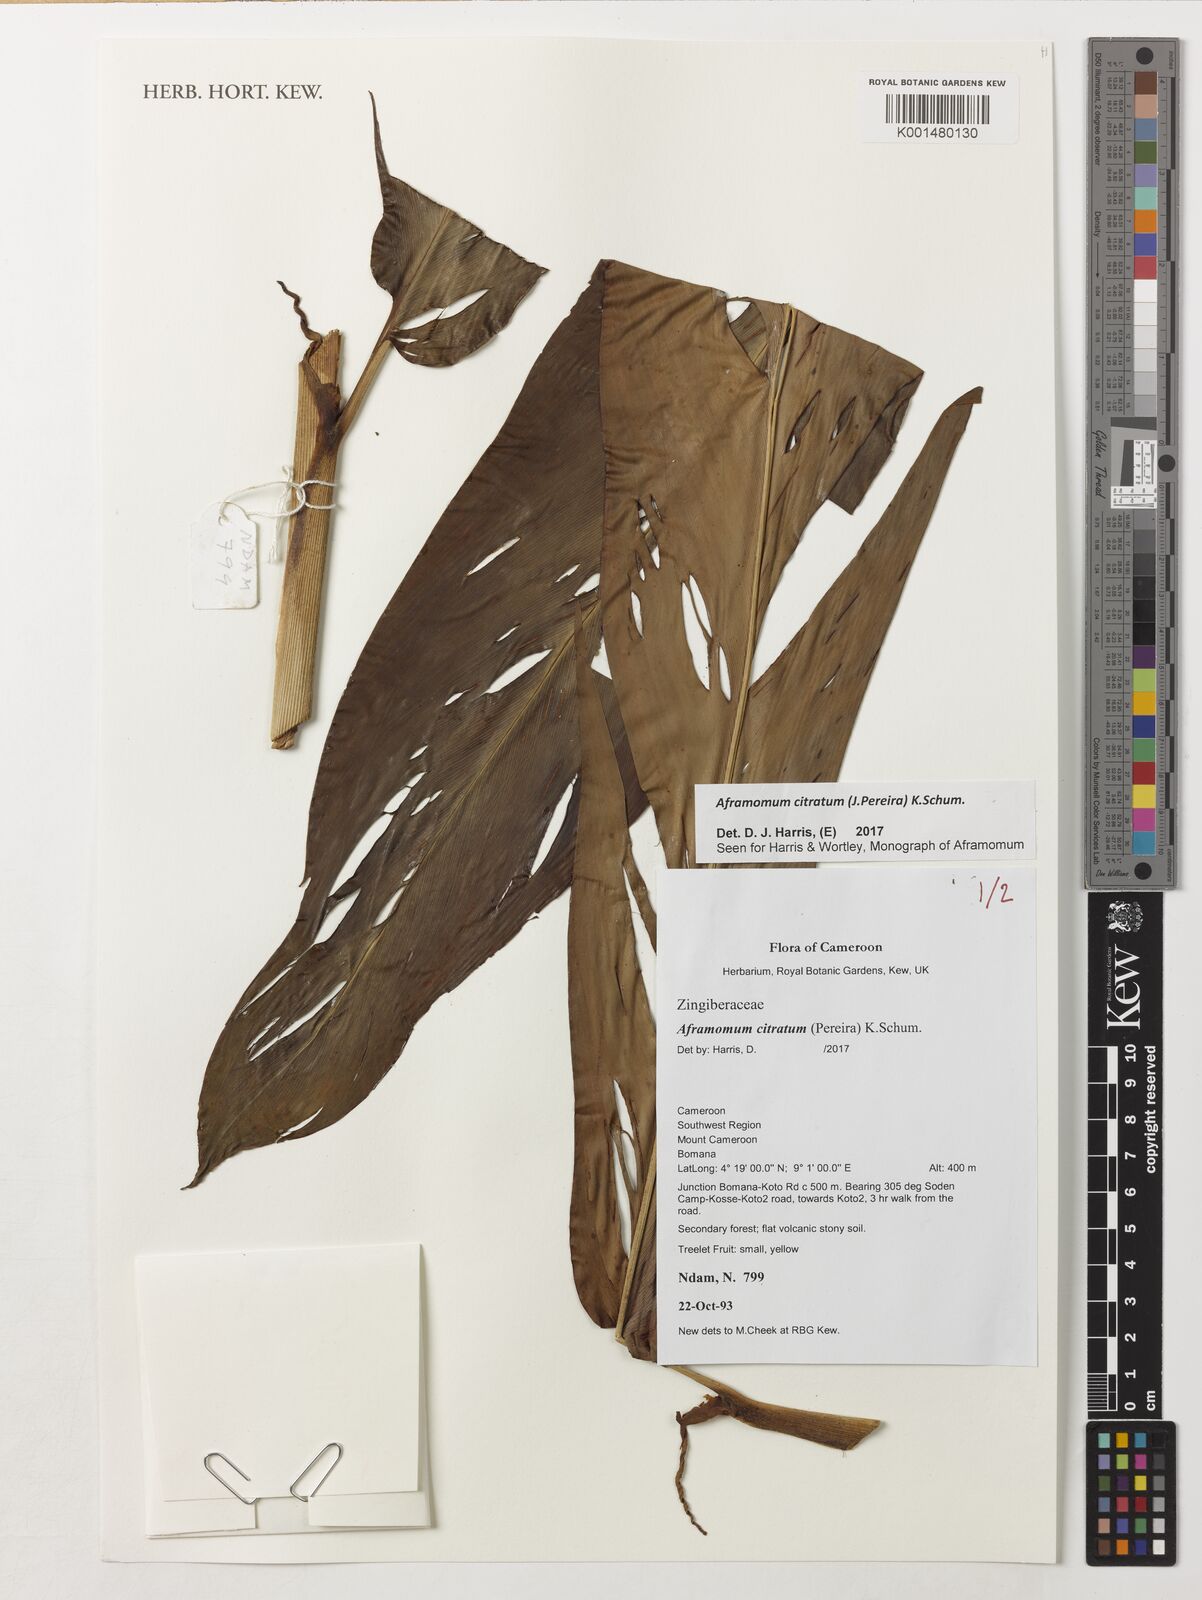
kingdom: Plantae
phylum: Tracheophyta
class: Liliopsida
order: Zingiberales
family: Zingiberaceae
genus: Aframomum
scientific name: Aframomum citratum
